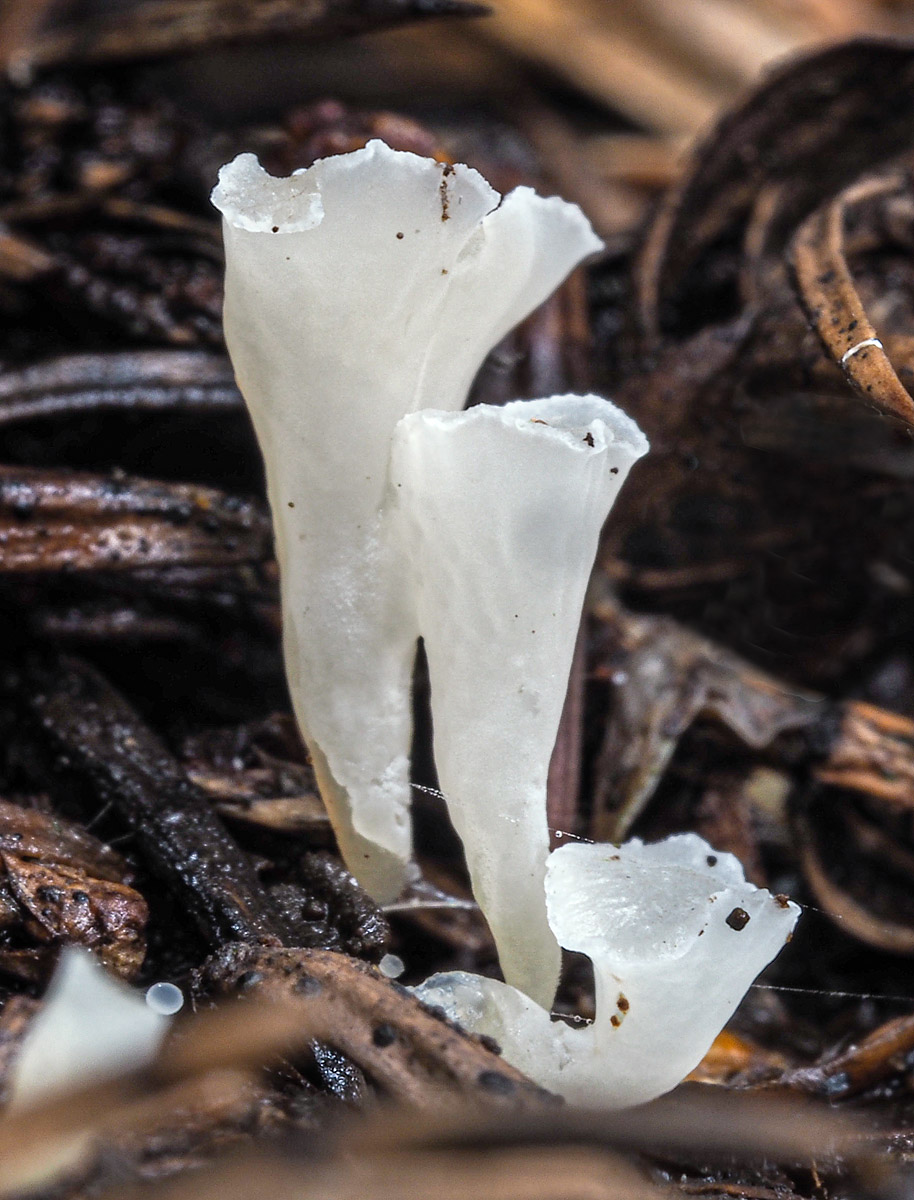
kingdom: Fungi
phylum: Basidiomycota
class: Agaricomycetes
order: Agaricales
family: Clavariaceae
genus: Clavicorona
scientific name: Clavicorona taxophila
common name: trompetkølle
